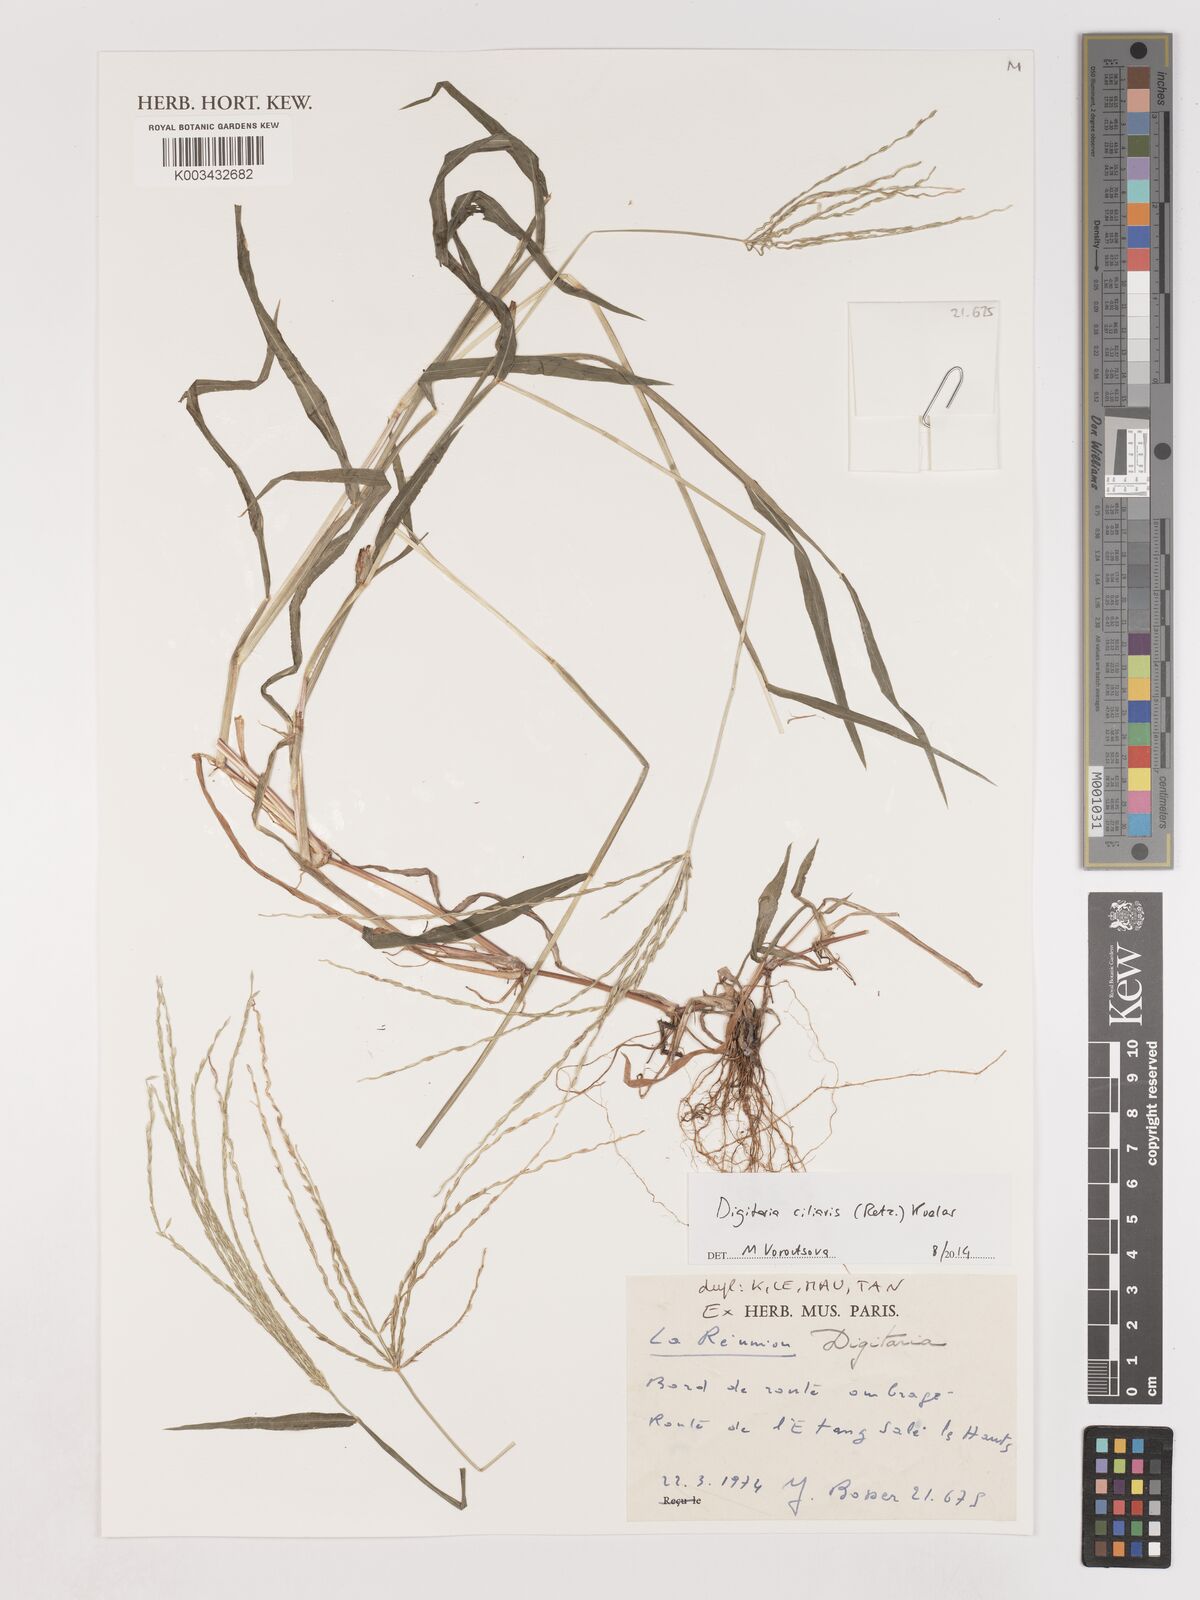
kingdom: Plantae
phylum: Tracheophyta
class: Liliopsida
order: Poales
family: Poaceae
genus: Digitaria
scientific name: Digitaria ciliaris
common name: Tropical finger-grass
